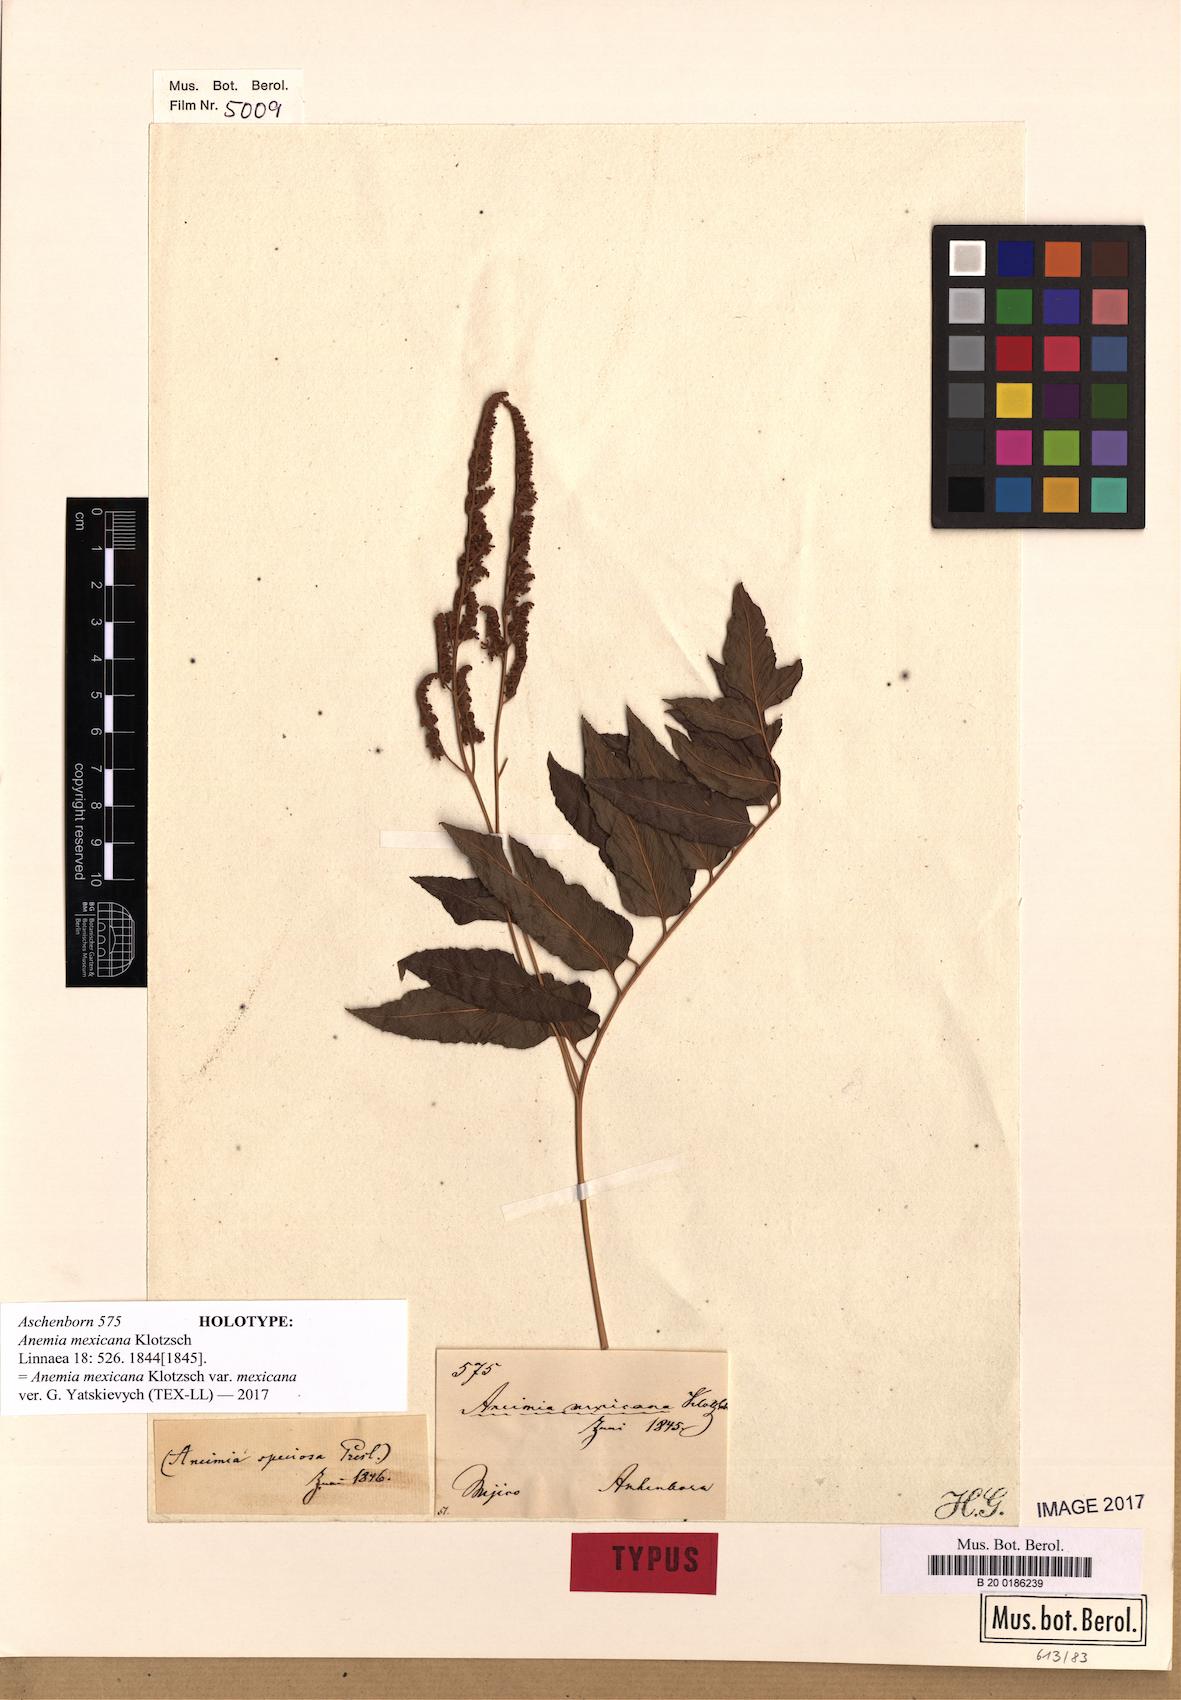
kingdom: Plantae
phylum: Tracheophyta
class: Polypodiopsida
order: Schizaeales
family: Anemiaceae
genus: Anemia
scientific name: Anemia mexicana
